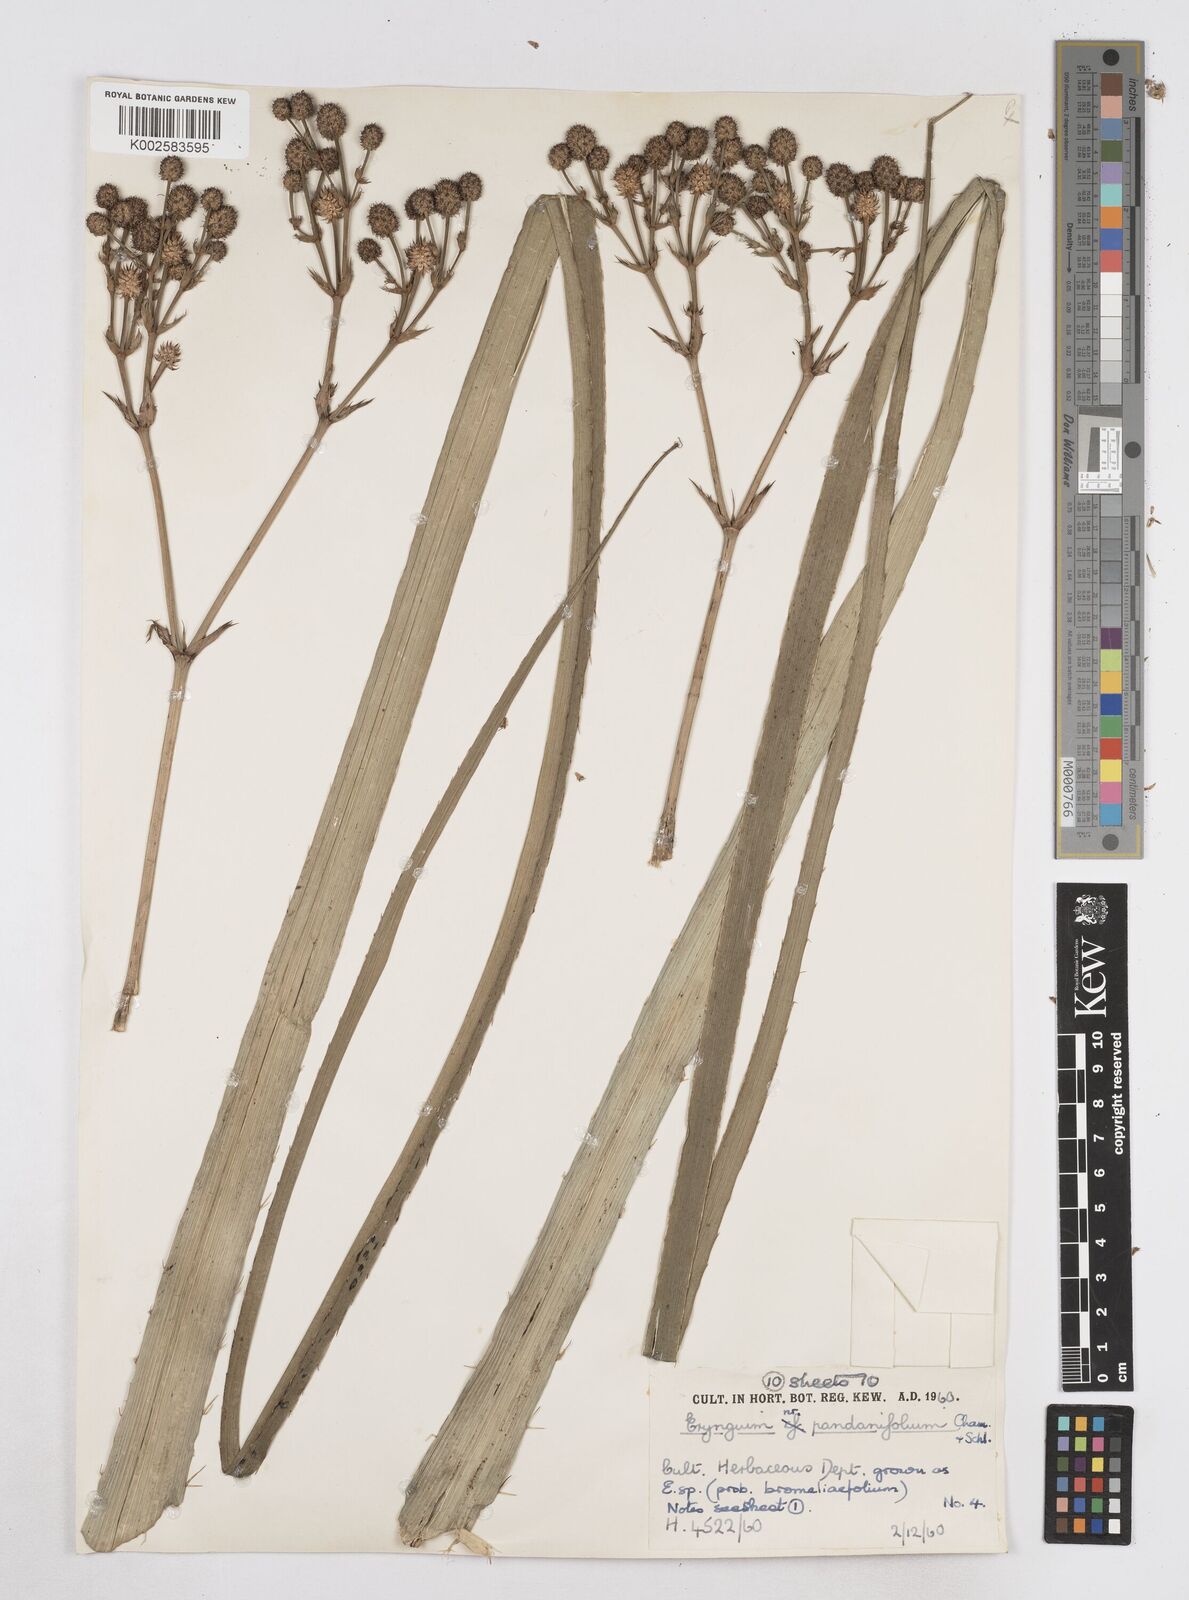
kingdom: Plantae
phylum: Tracheophyta
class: Magnoliopsida
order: Apiales
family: Apiaceae
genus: Eryngium
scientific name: Eryngium pandanifolium
